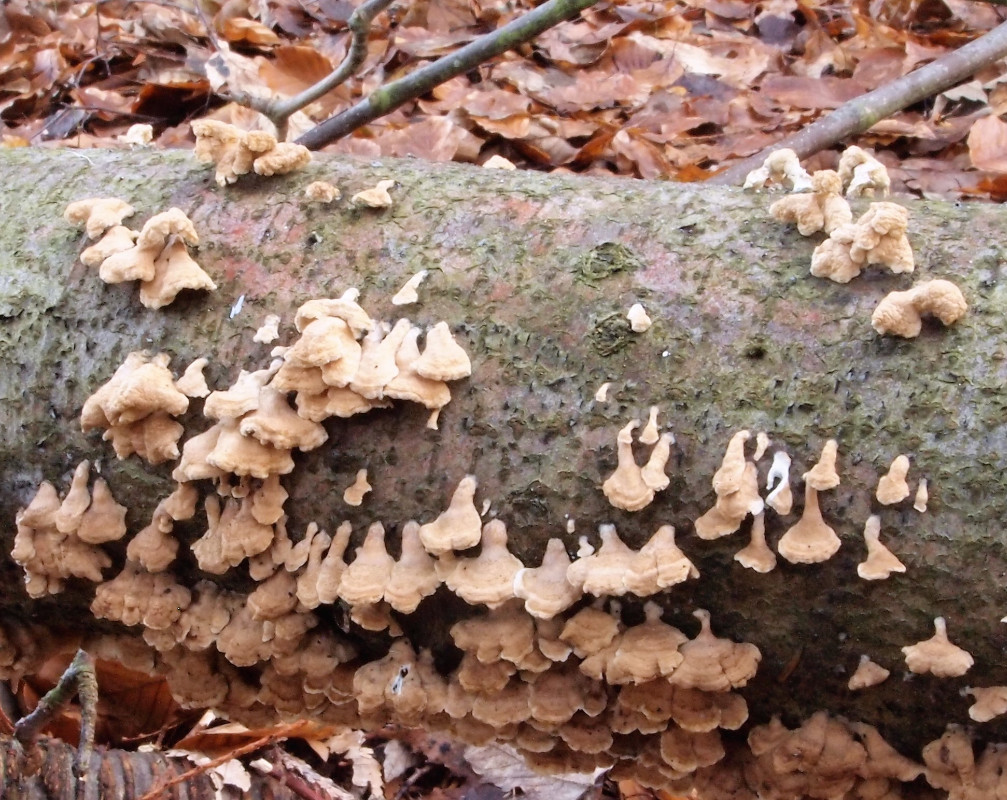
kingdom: Fungi
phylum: Basidiomycota
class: Agaricomycetes
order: Amylocorticiales
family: Amylocorticiaceae
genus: Plicaturopsis
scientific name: Plicaturopsis crispa
